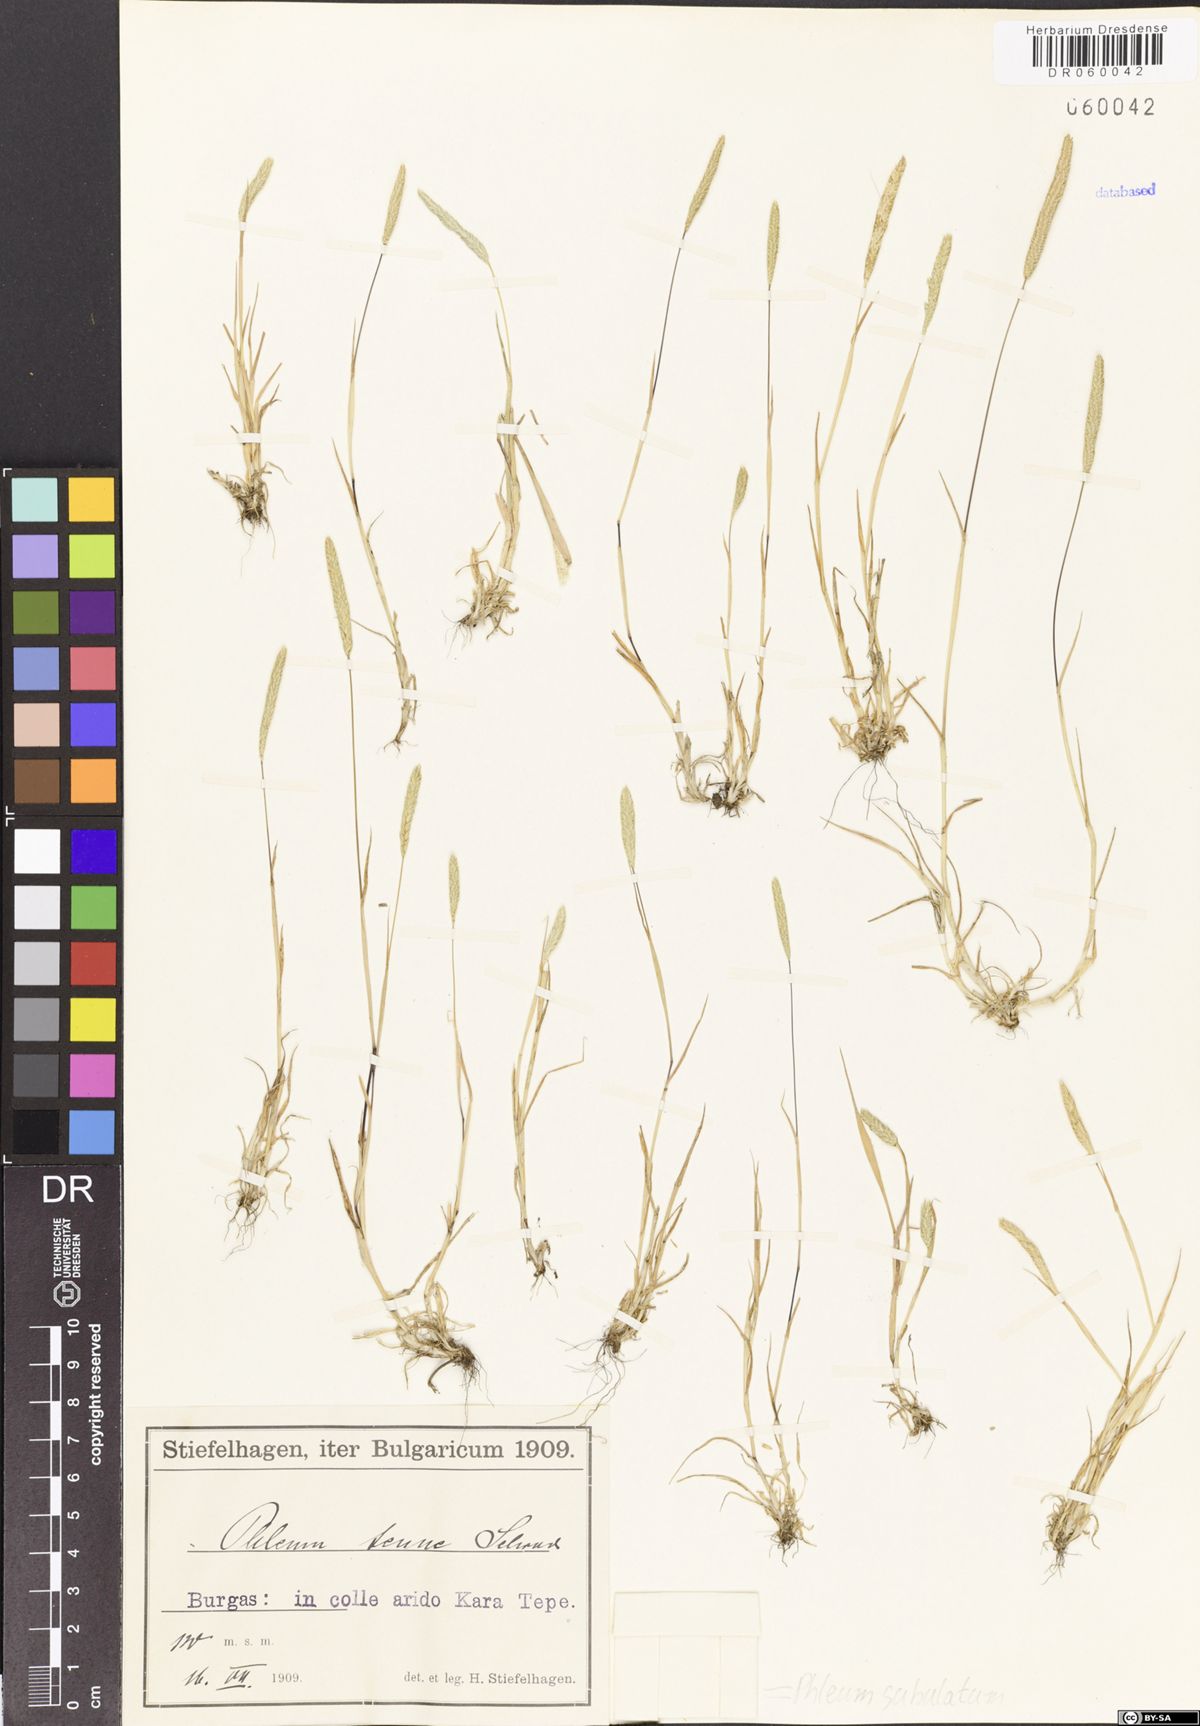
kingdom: Plantae
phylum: Tracheophyta
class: Liliopsida
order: Poales
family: Poaceae
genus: Phleum
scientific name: Phleum subulatum
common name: Italian timothy
